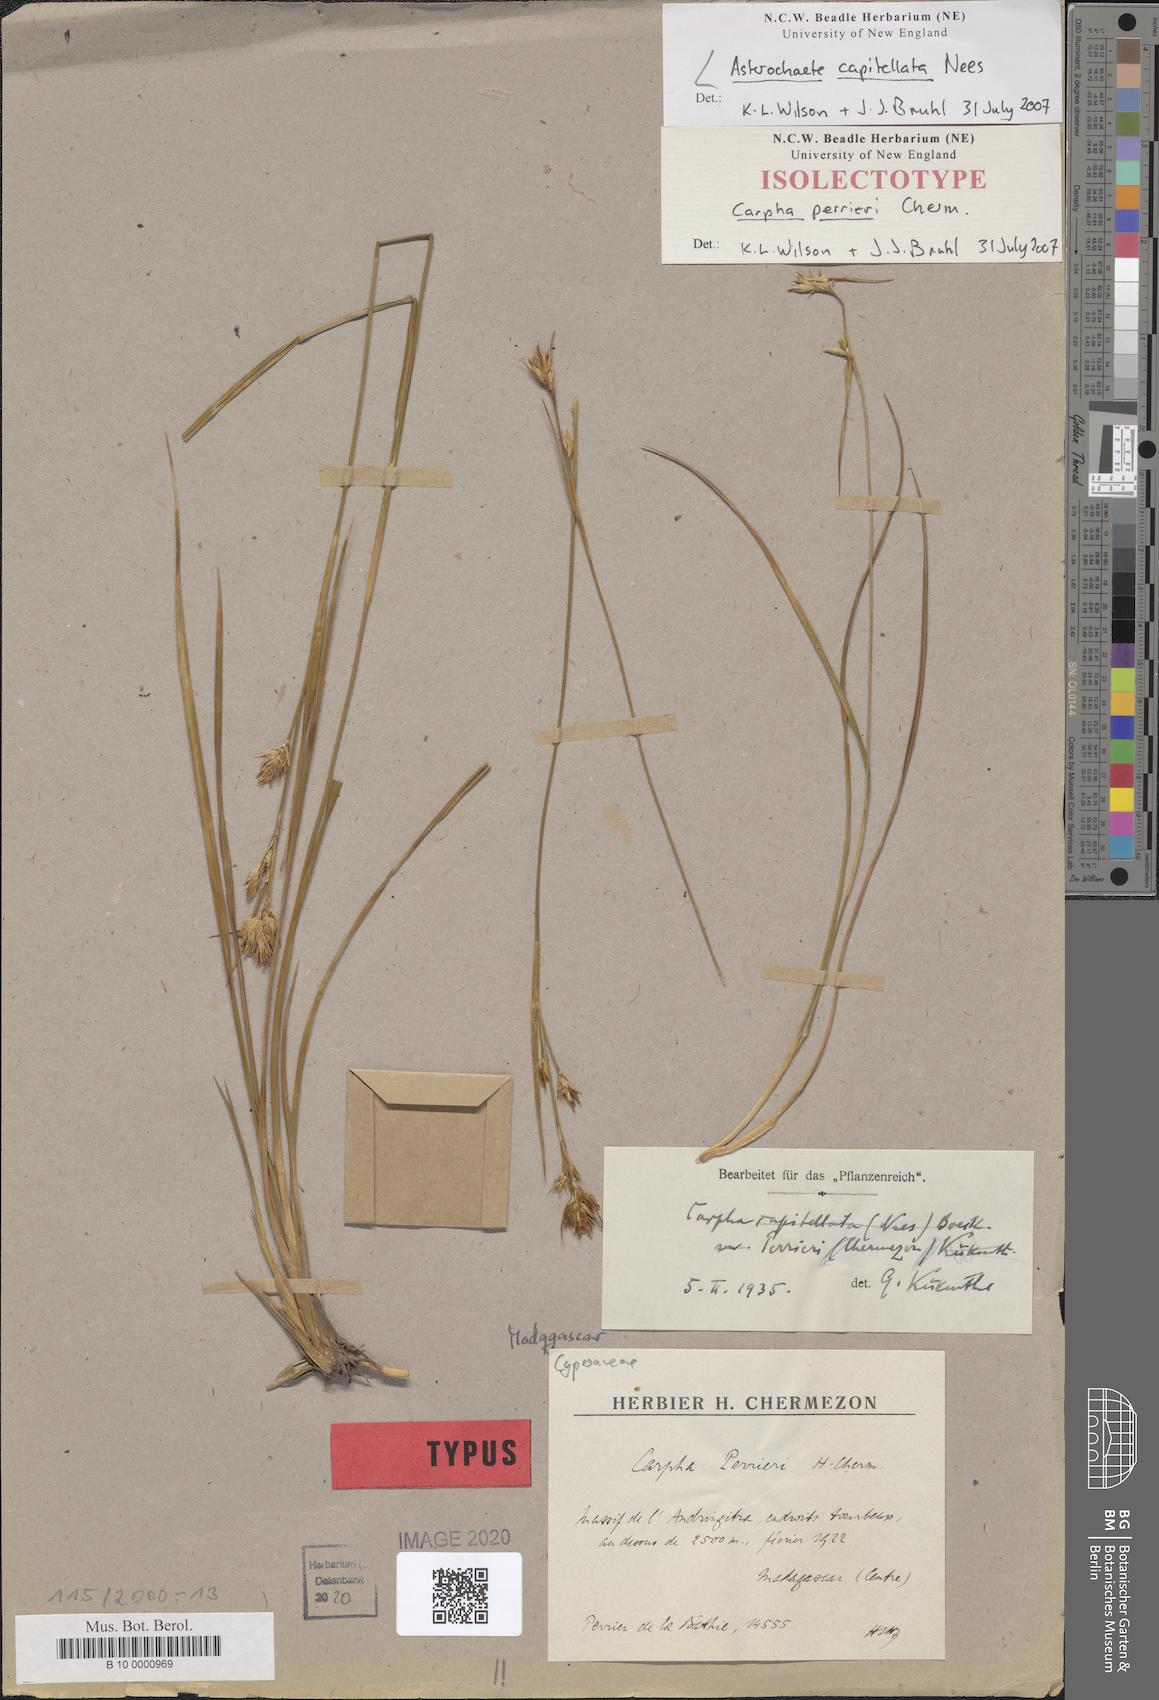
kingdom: Plantae
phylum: Tracheophyta
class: Liliopsida
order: Poales
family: Cyperaceae
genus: Carpha
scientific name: Carpha capitellata
